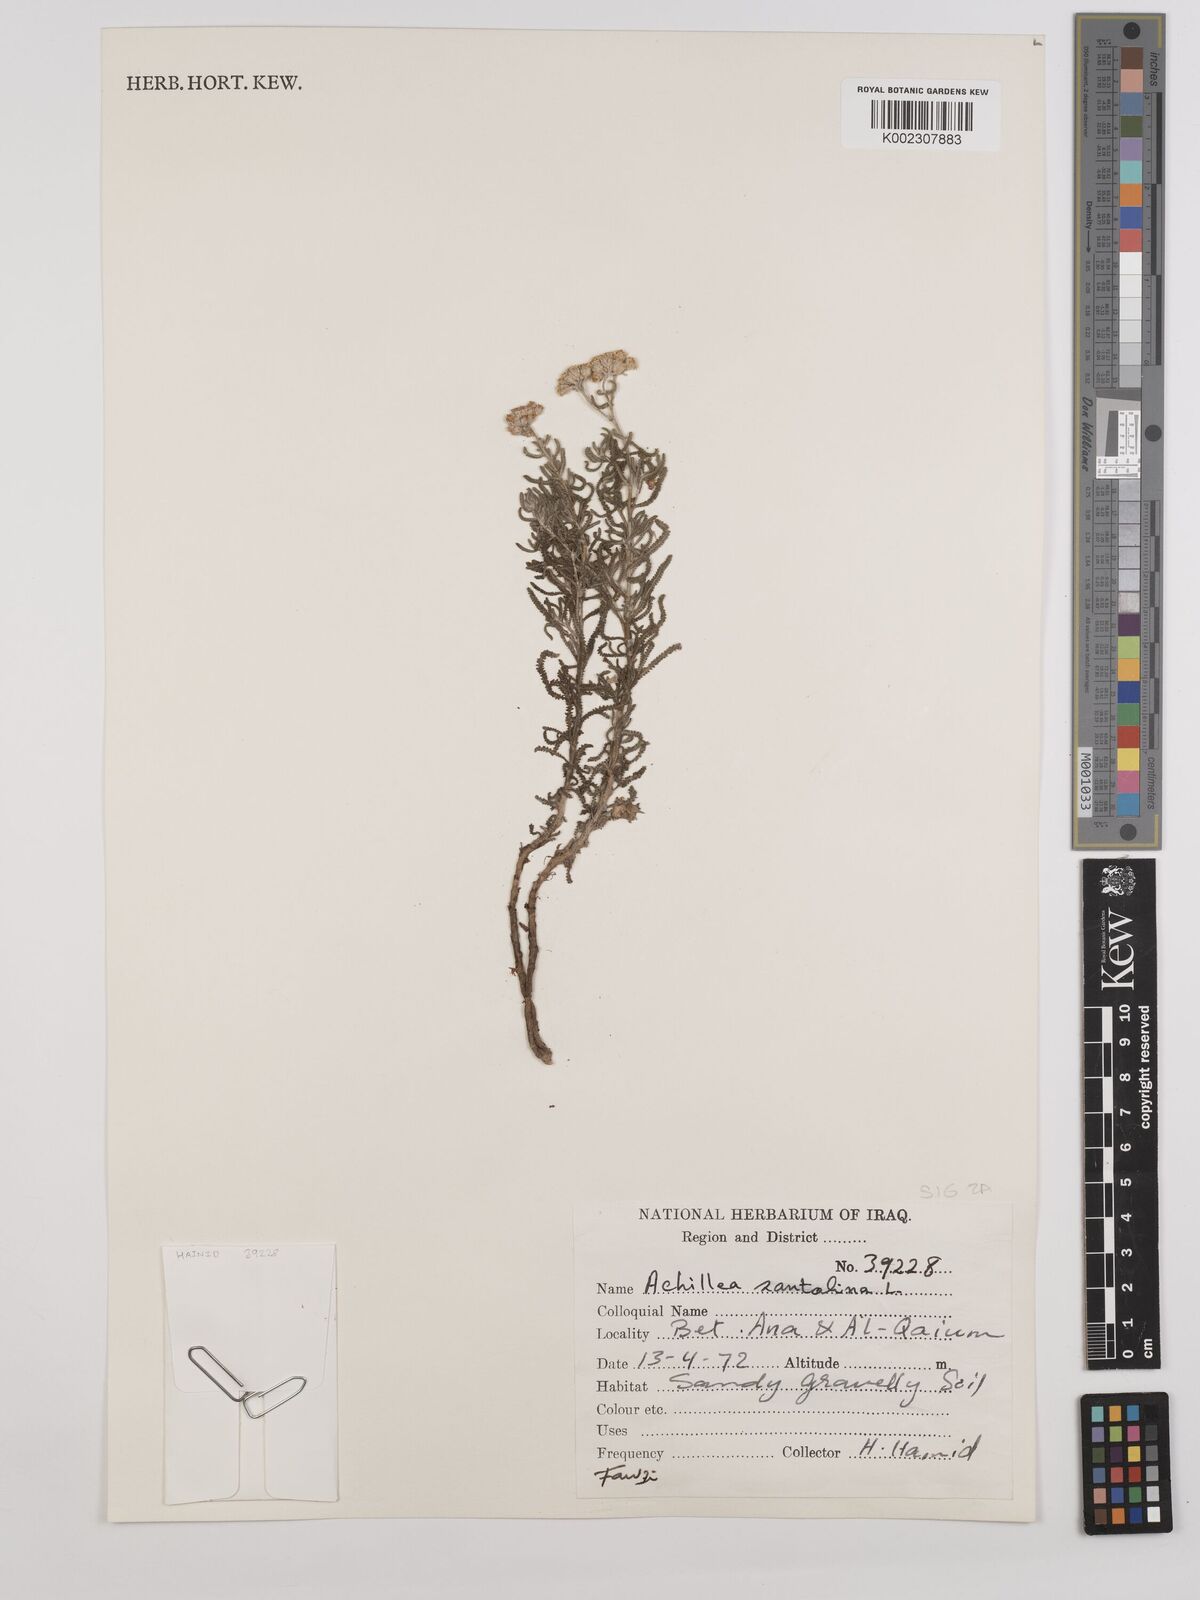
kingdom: Plantae
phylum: Tracheophyta
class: Magnoliopsida
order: Asterales
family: Asteraceae
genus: Achillea
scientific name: Achillea wilhelmsii
